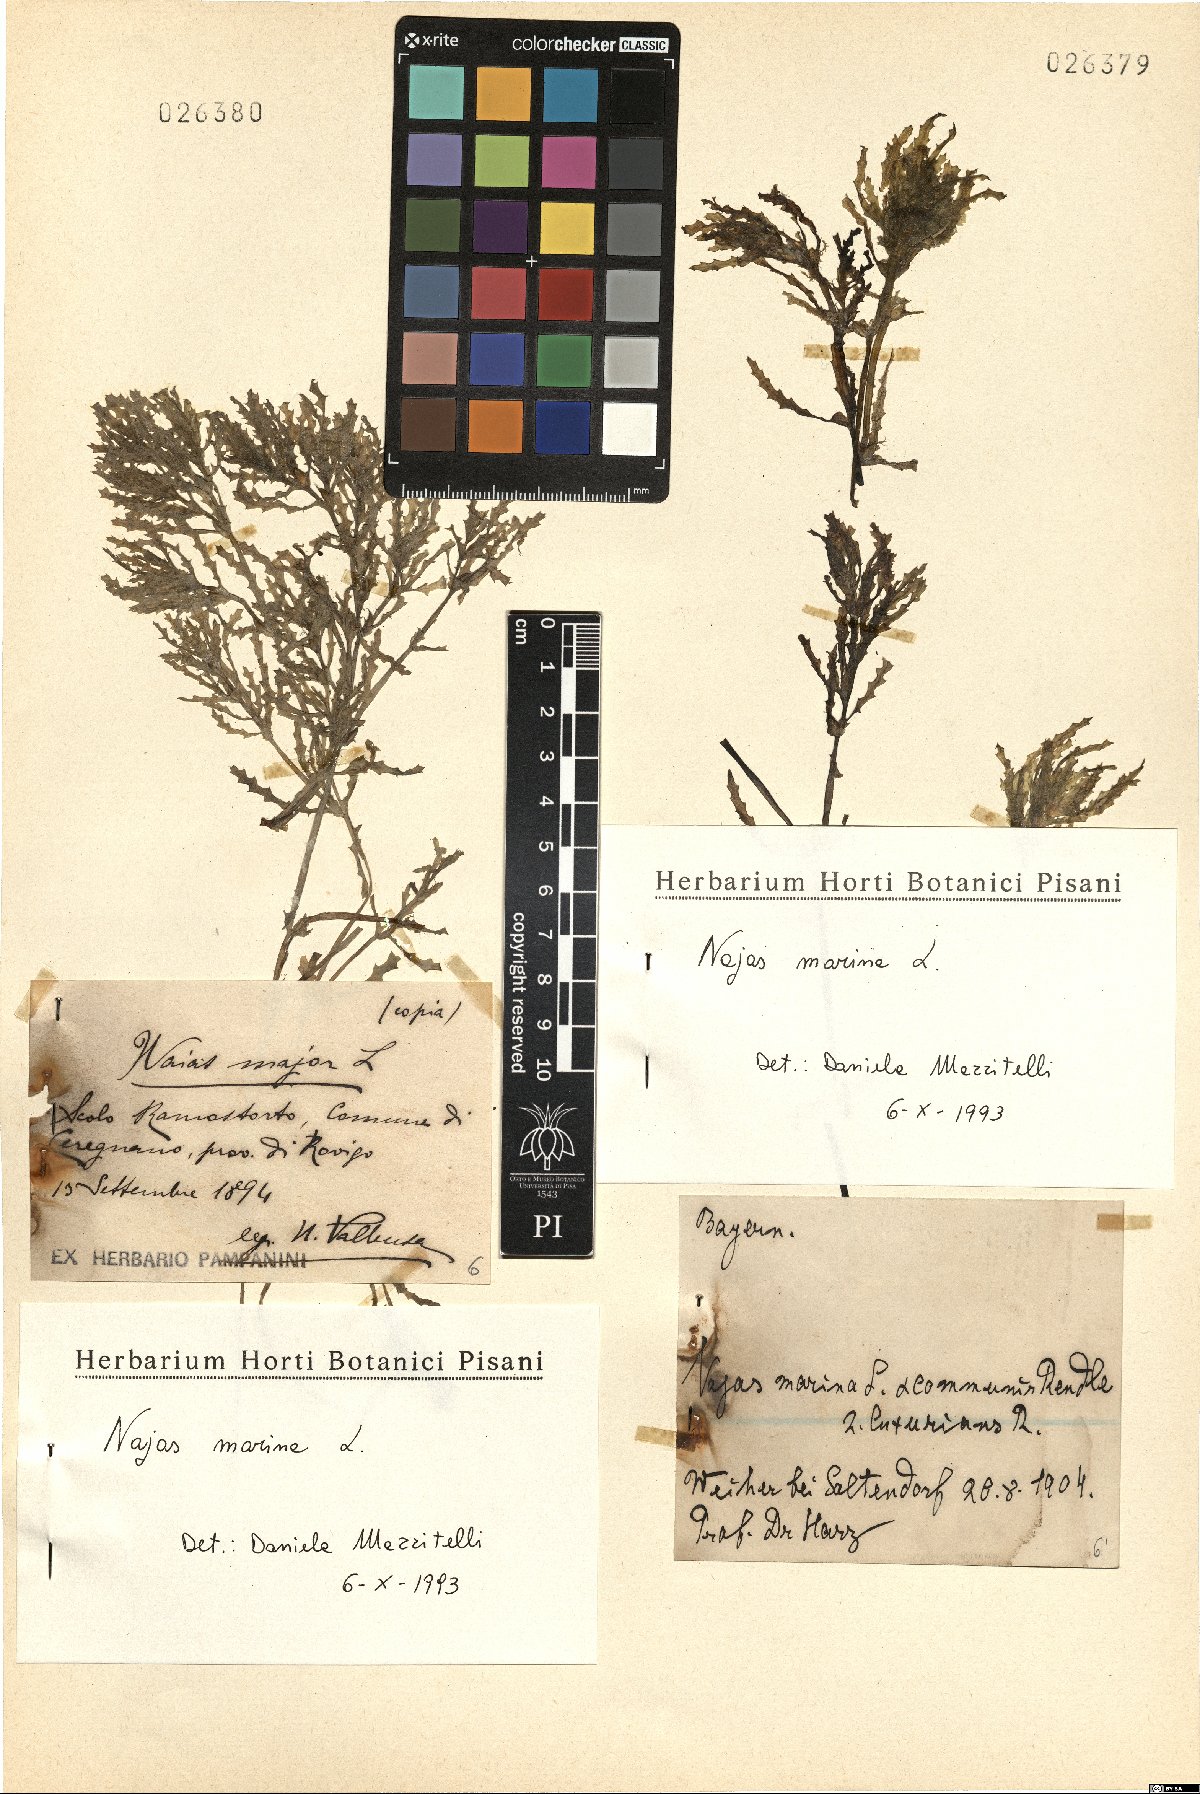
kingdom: Plantae
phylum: Tracheophyta
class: Liliopsida
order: Alismatales
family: Hydrocharitaceae
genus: Najas
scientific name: Najas marina
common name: Holly-leaved naiad
